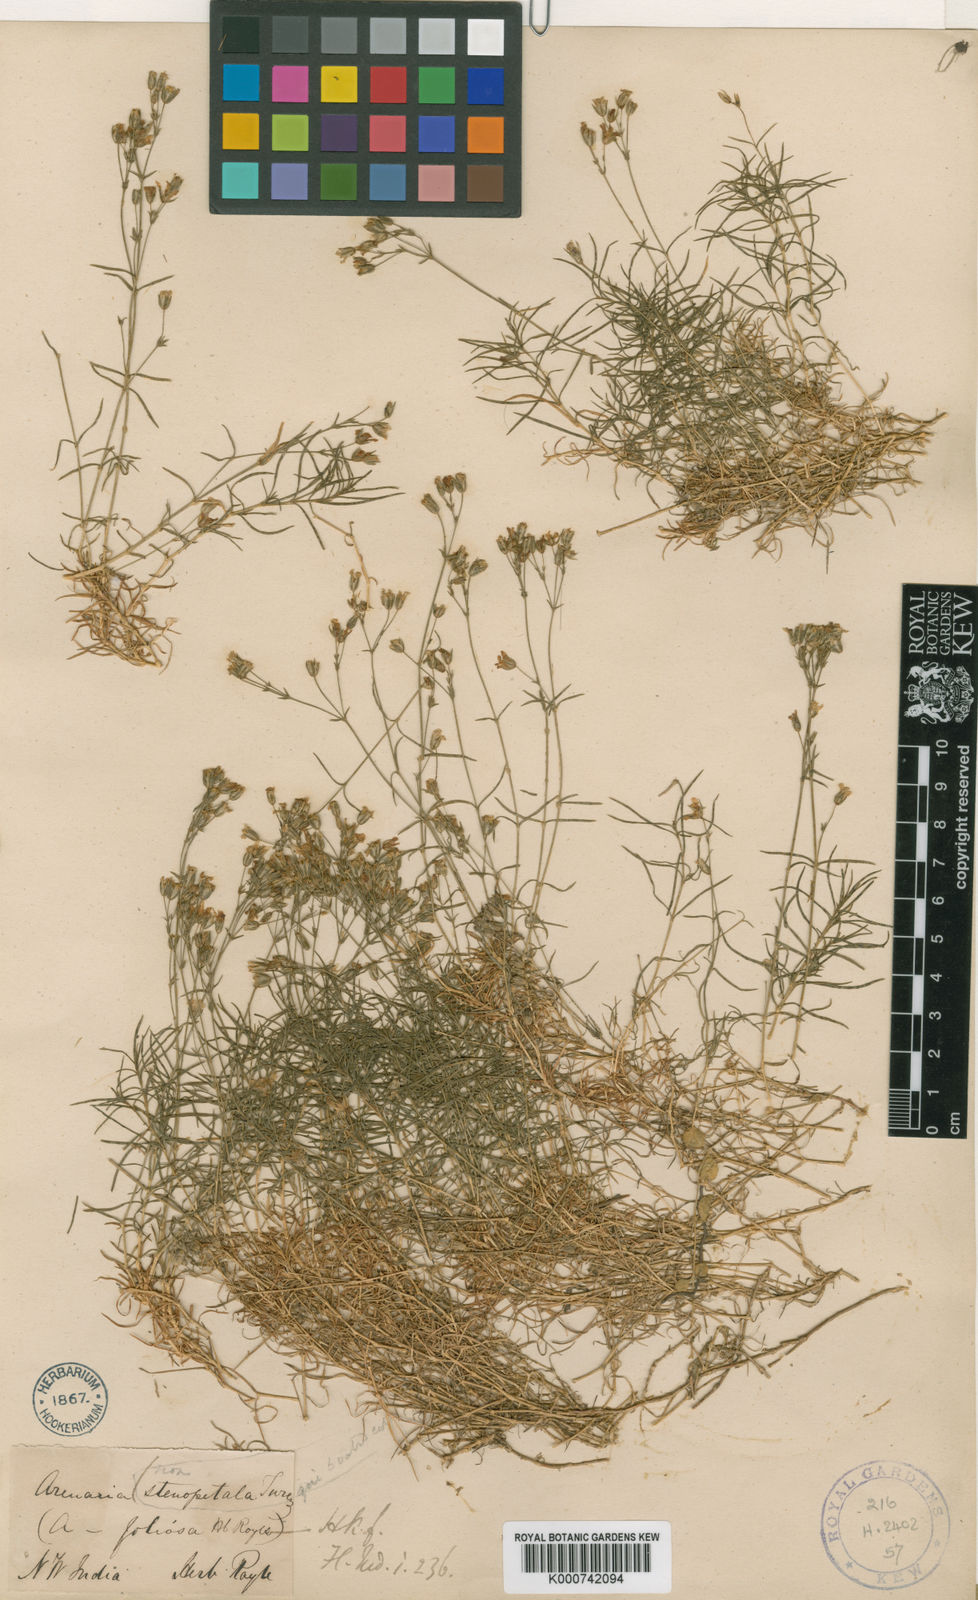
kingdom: Plantae
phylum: Tracheophyta
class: Magnoliopsida
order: Caryophyllales
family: Caryophyllaceae
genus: Sabulina
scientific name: Sabulina foliosa
